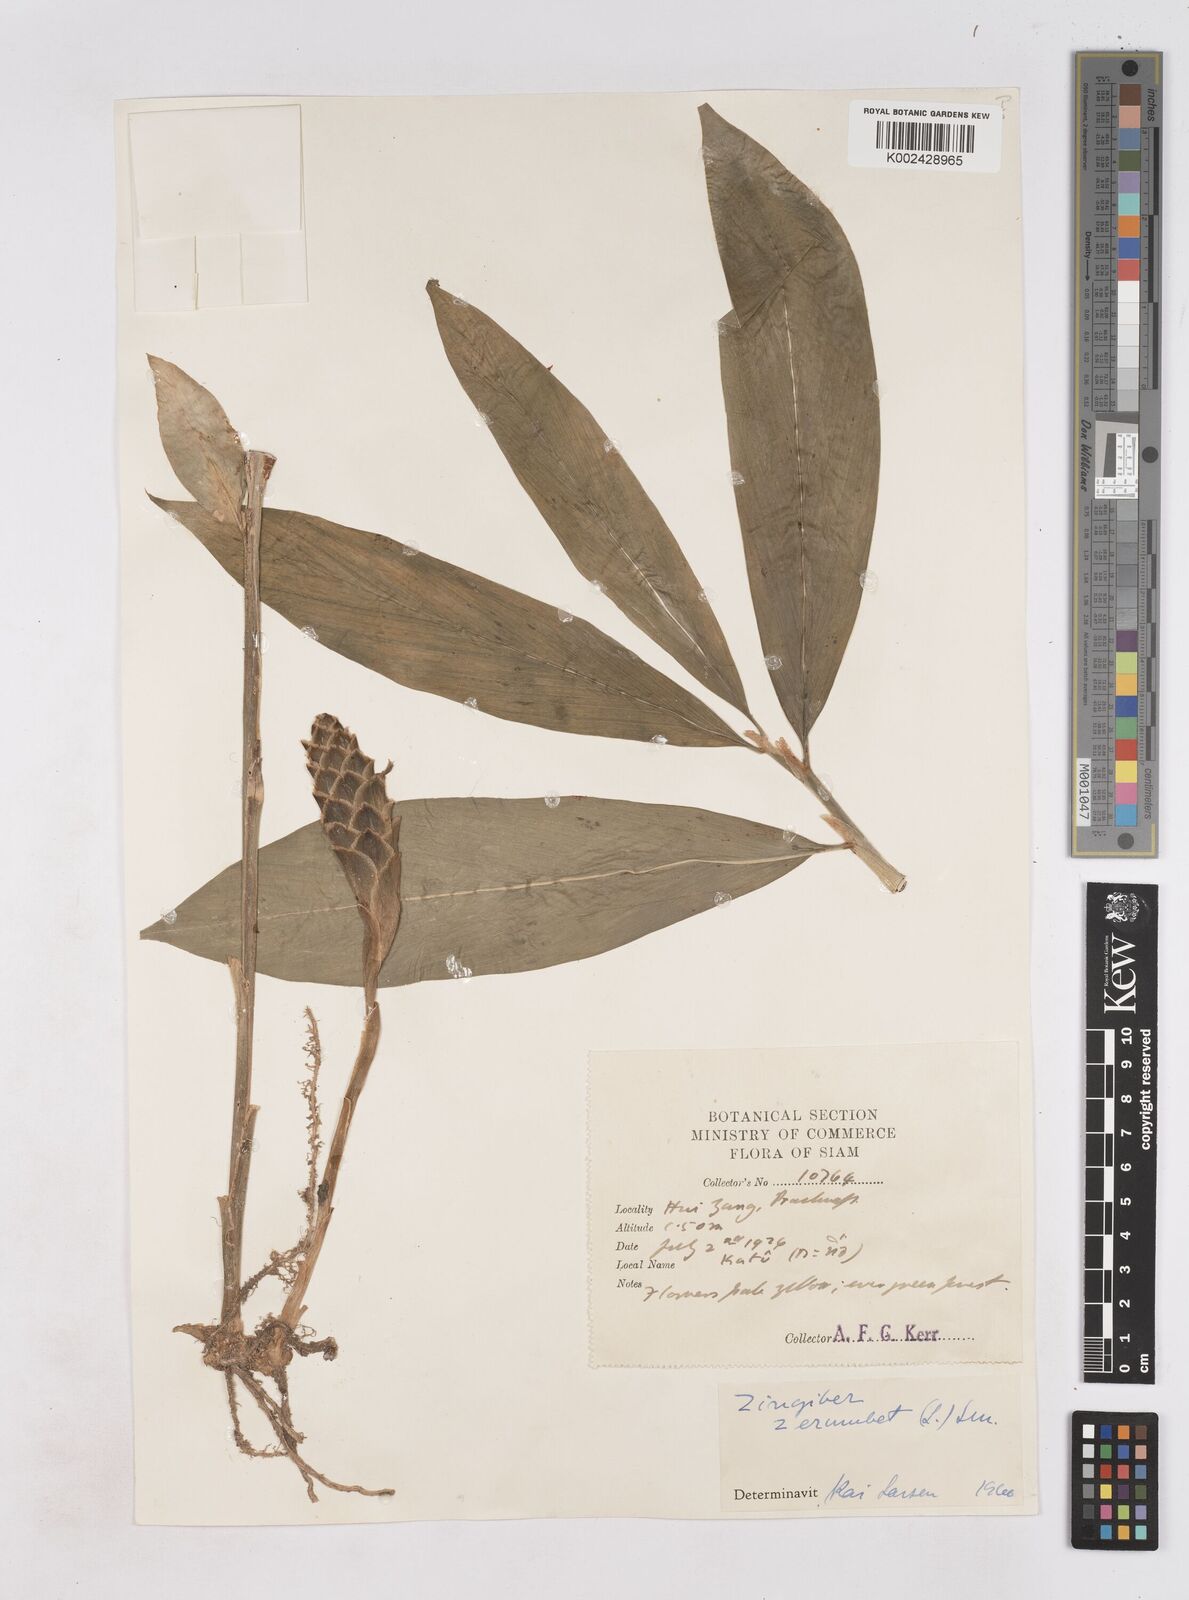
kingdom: Plantae
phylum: Tracheophyta
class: Liliopsida
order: Zingiberales
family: Zingiberaceae
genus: Zingiber
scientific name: Zingiber zerumbet
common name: Bitter ginger
